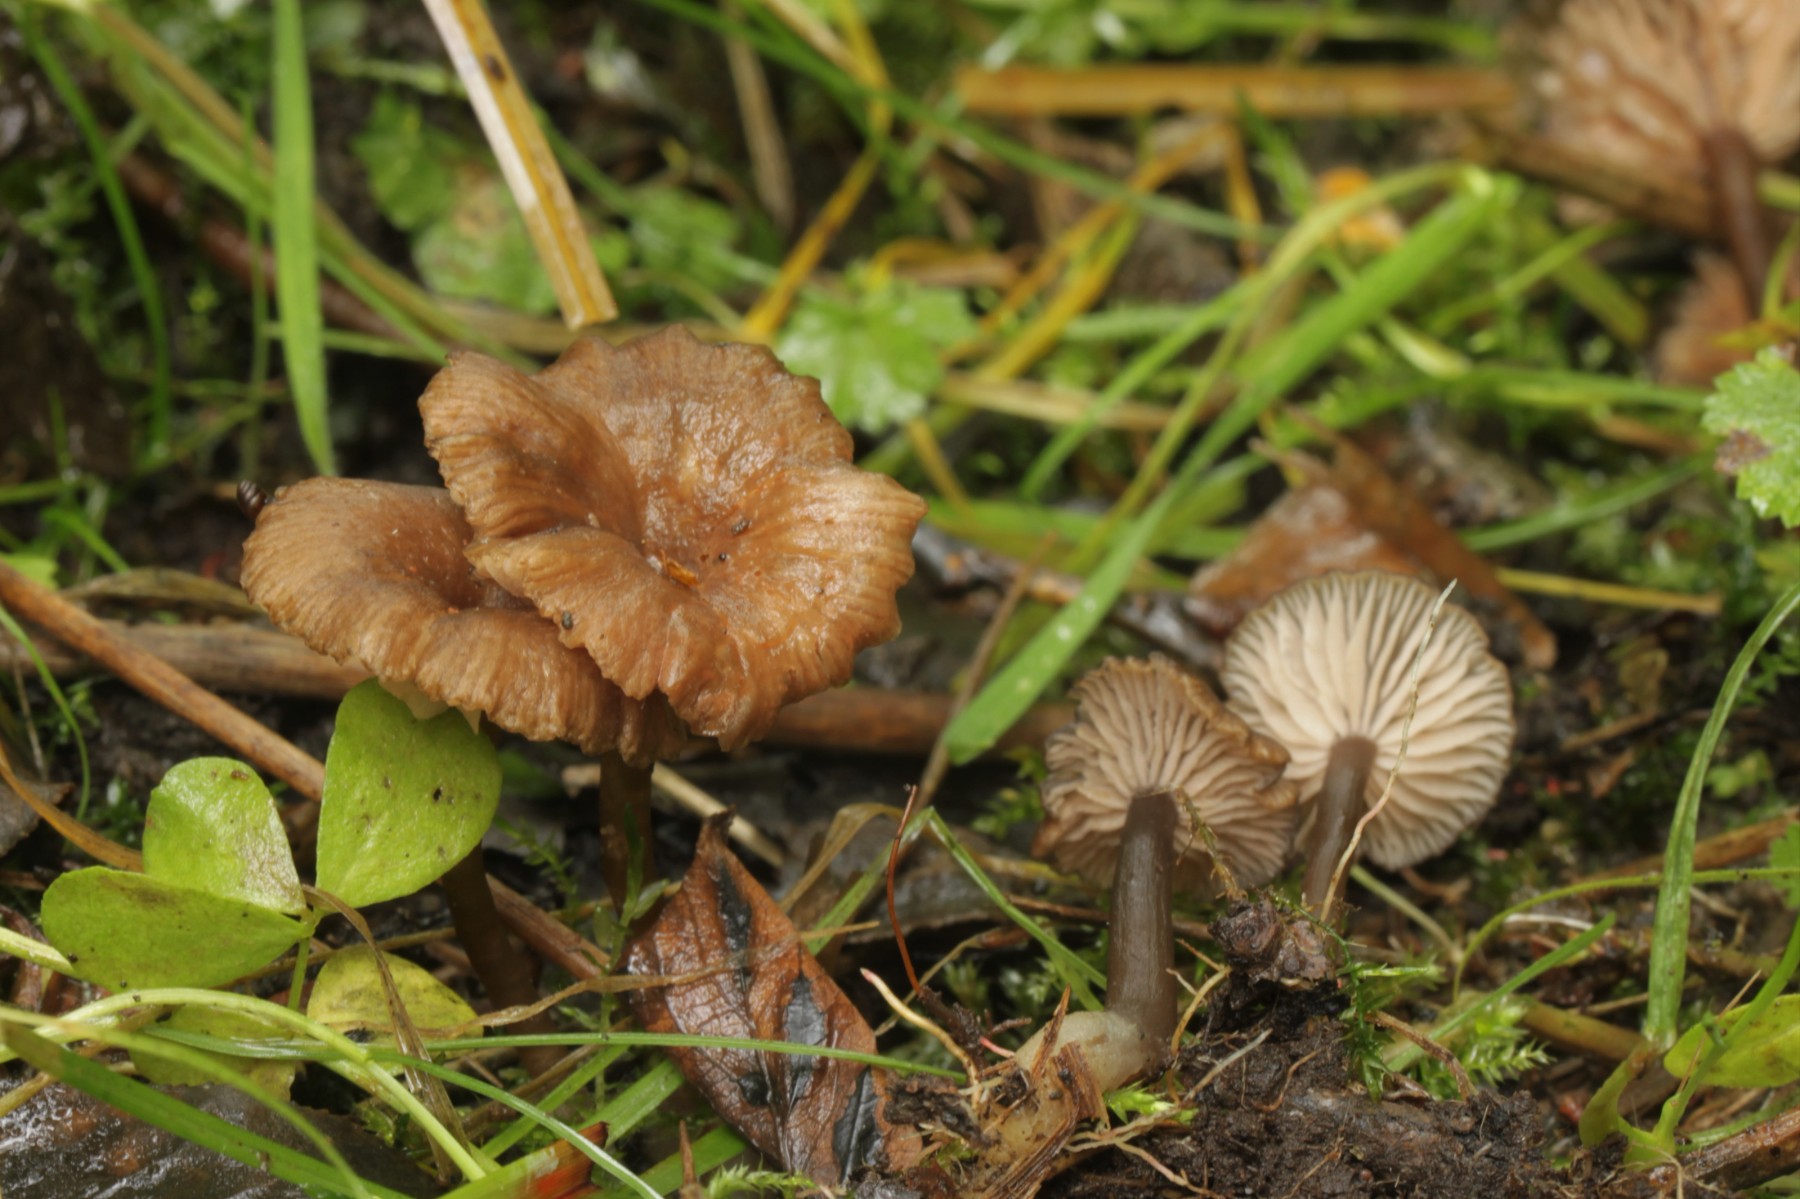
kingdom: Fungi
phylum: Basidiomycota
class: Agaricomycetes
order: Agaricales
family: Entolomataceae
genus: Entoloma
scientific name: Entoloma
